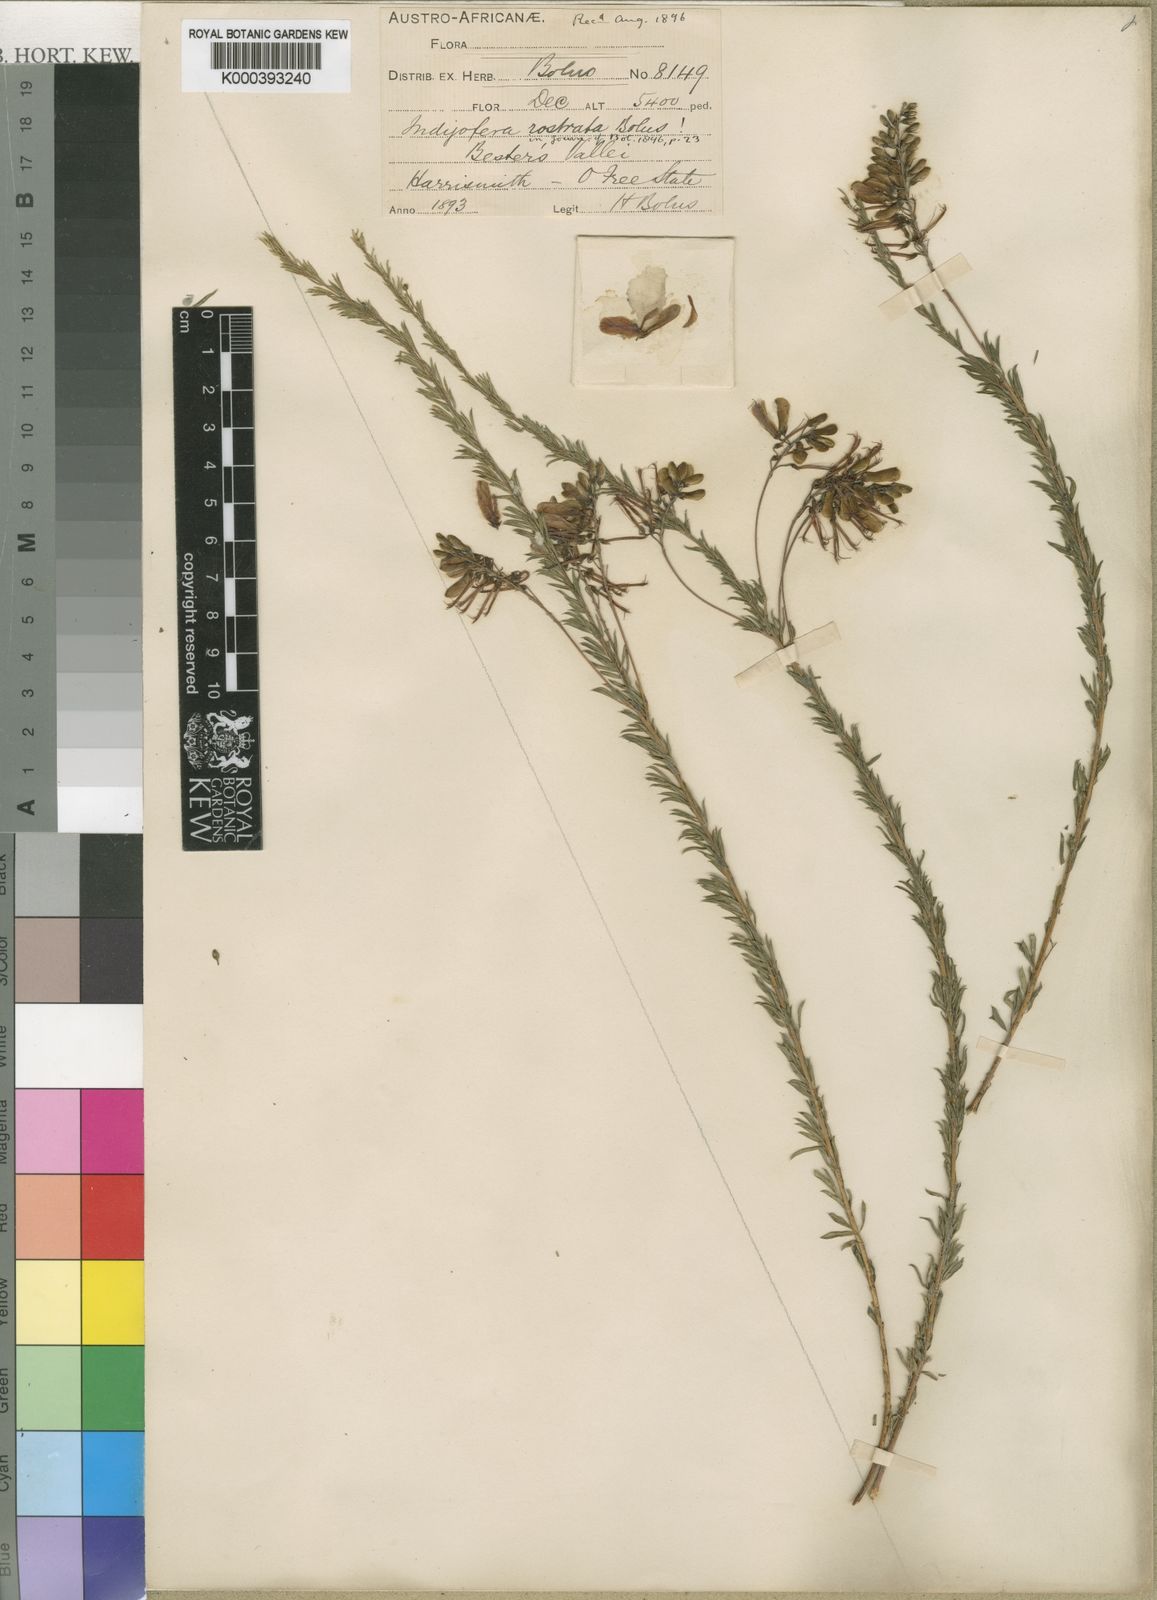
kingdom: Plantae
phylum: Tracheophyta
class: Magnoliopsida
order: Fabales
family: Fabaceae
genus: Indigofera
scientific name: Indigofera rostrata
